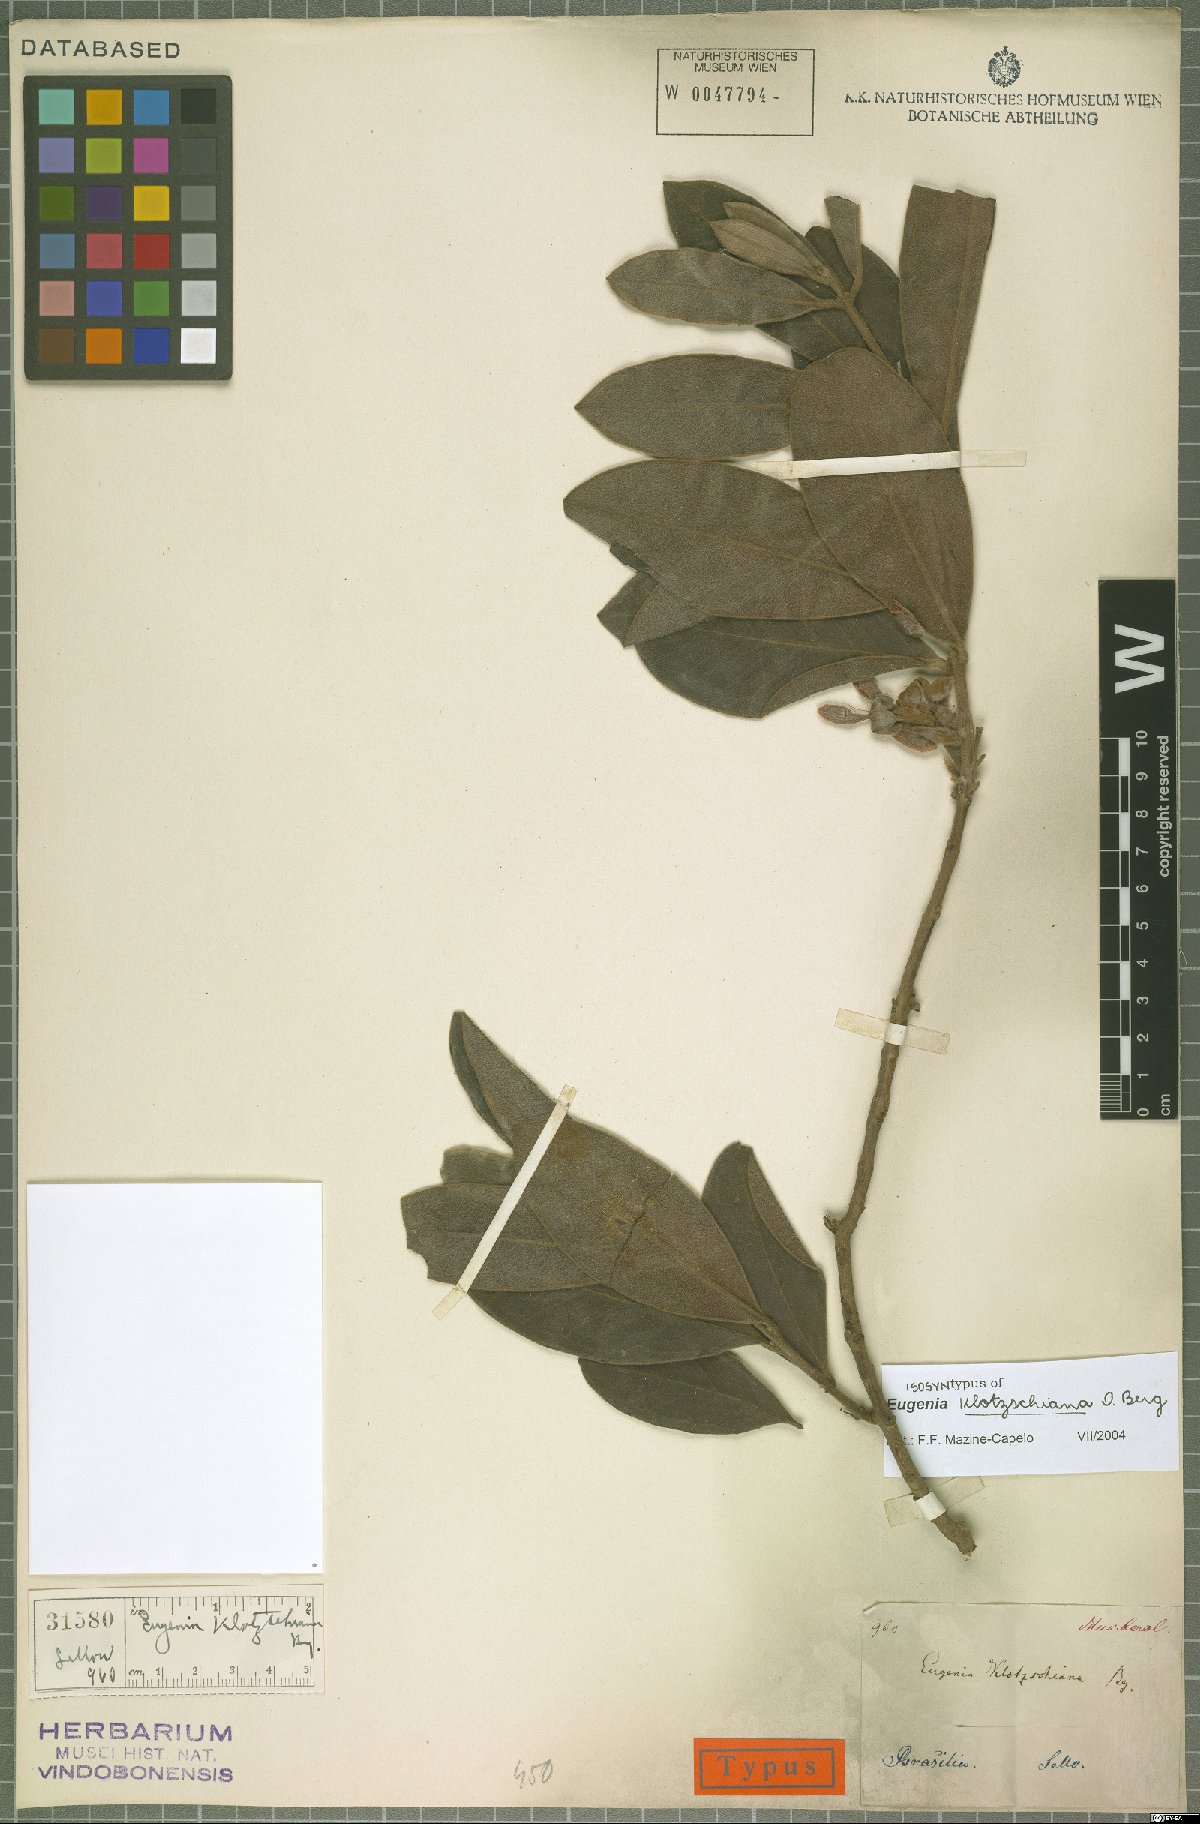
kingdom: Plantae
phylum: Tracheophyta
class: Magnoliopsida
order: Myrtales
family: Myrtaceae
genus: Eugenia
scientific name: Eugenia klotzschiana
